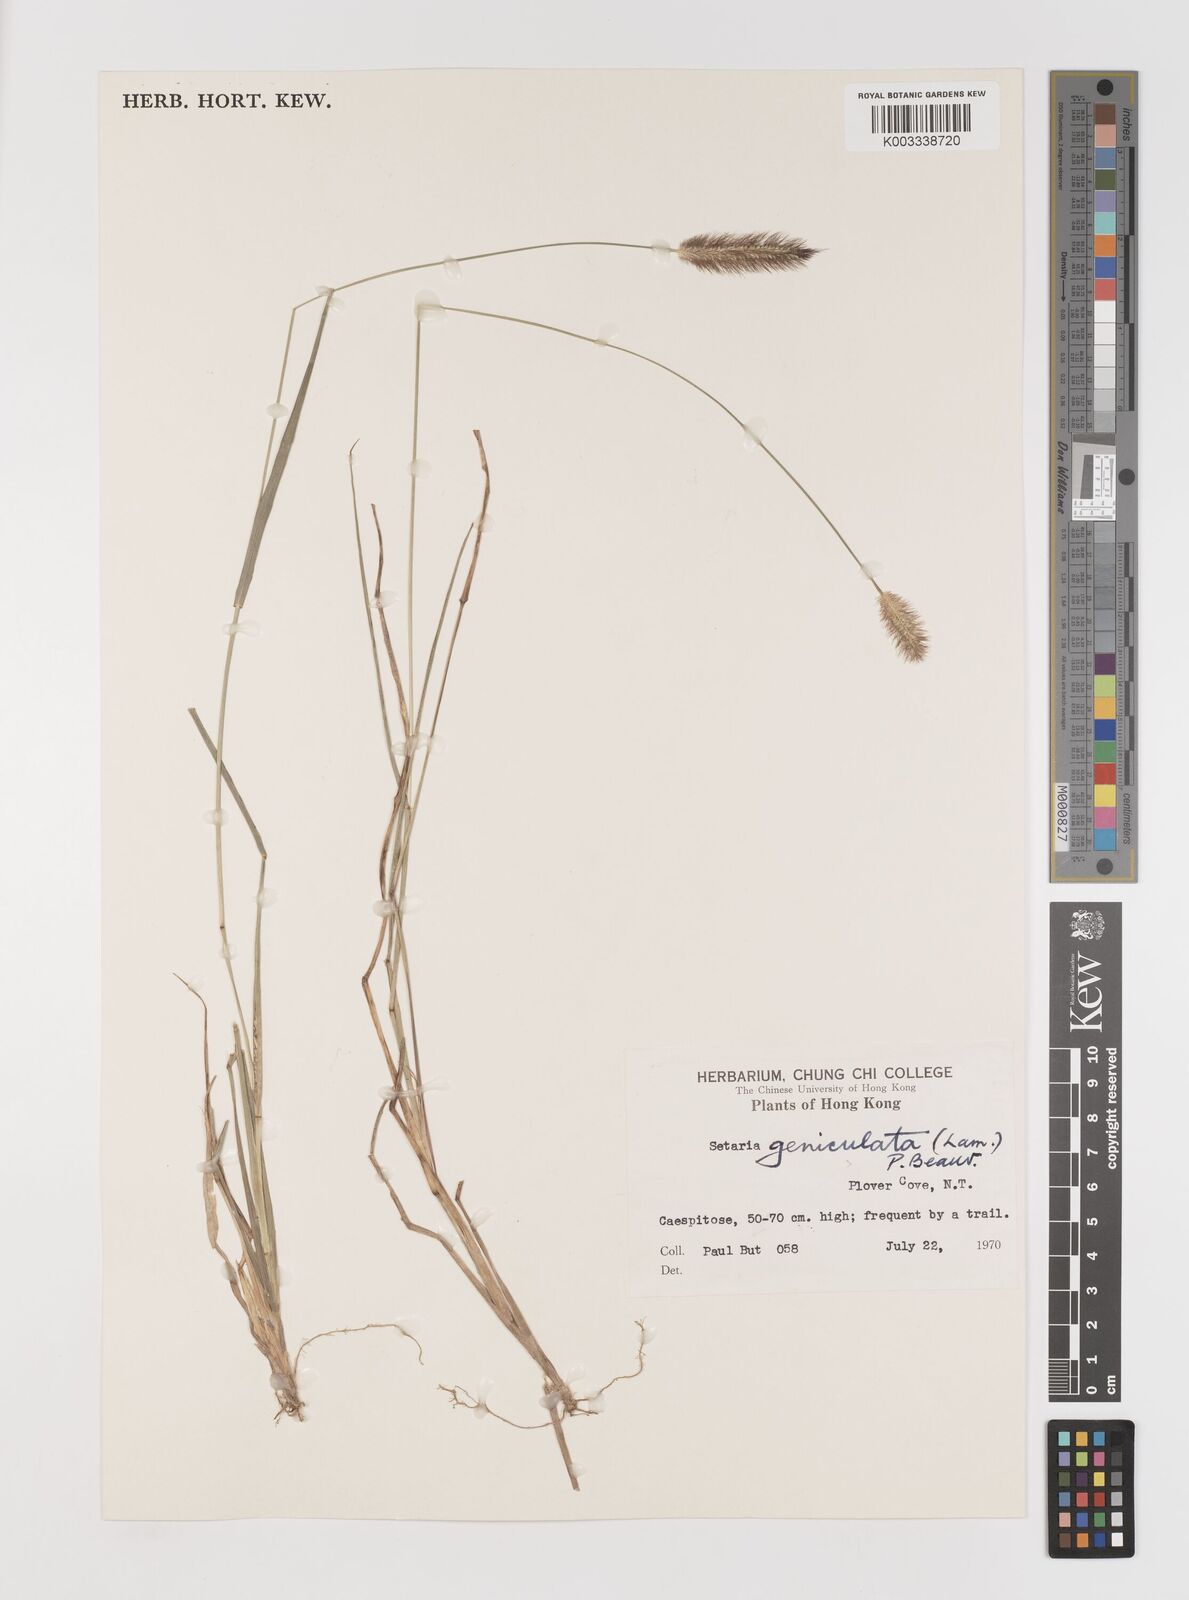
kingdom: Plantae
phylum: Tracheophyta
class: Liliopsida
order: Poales
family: Poaceae
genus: Setaria
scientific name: Setaria parviflora
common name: Knotroot bristle-grass
